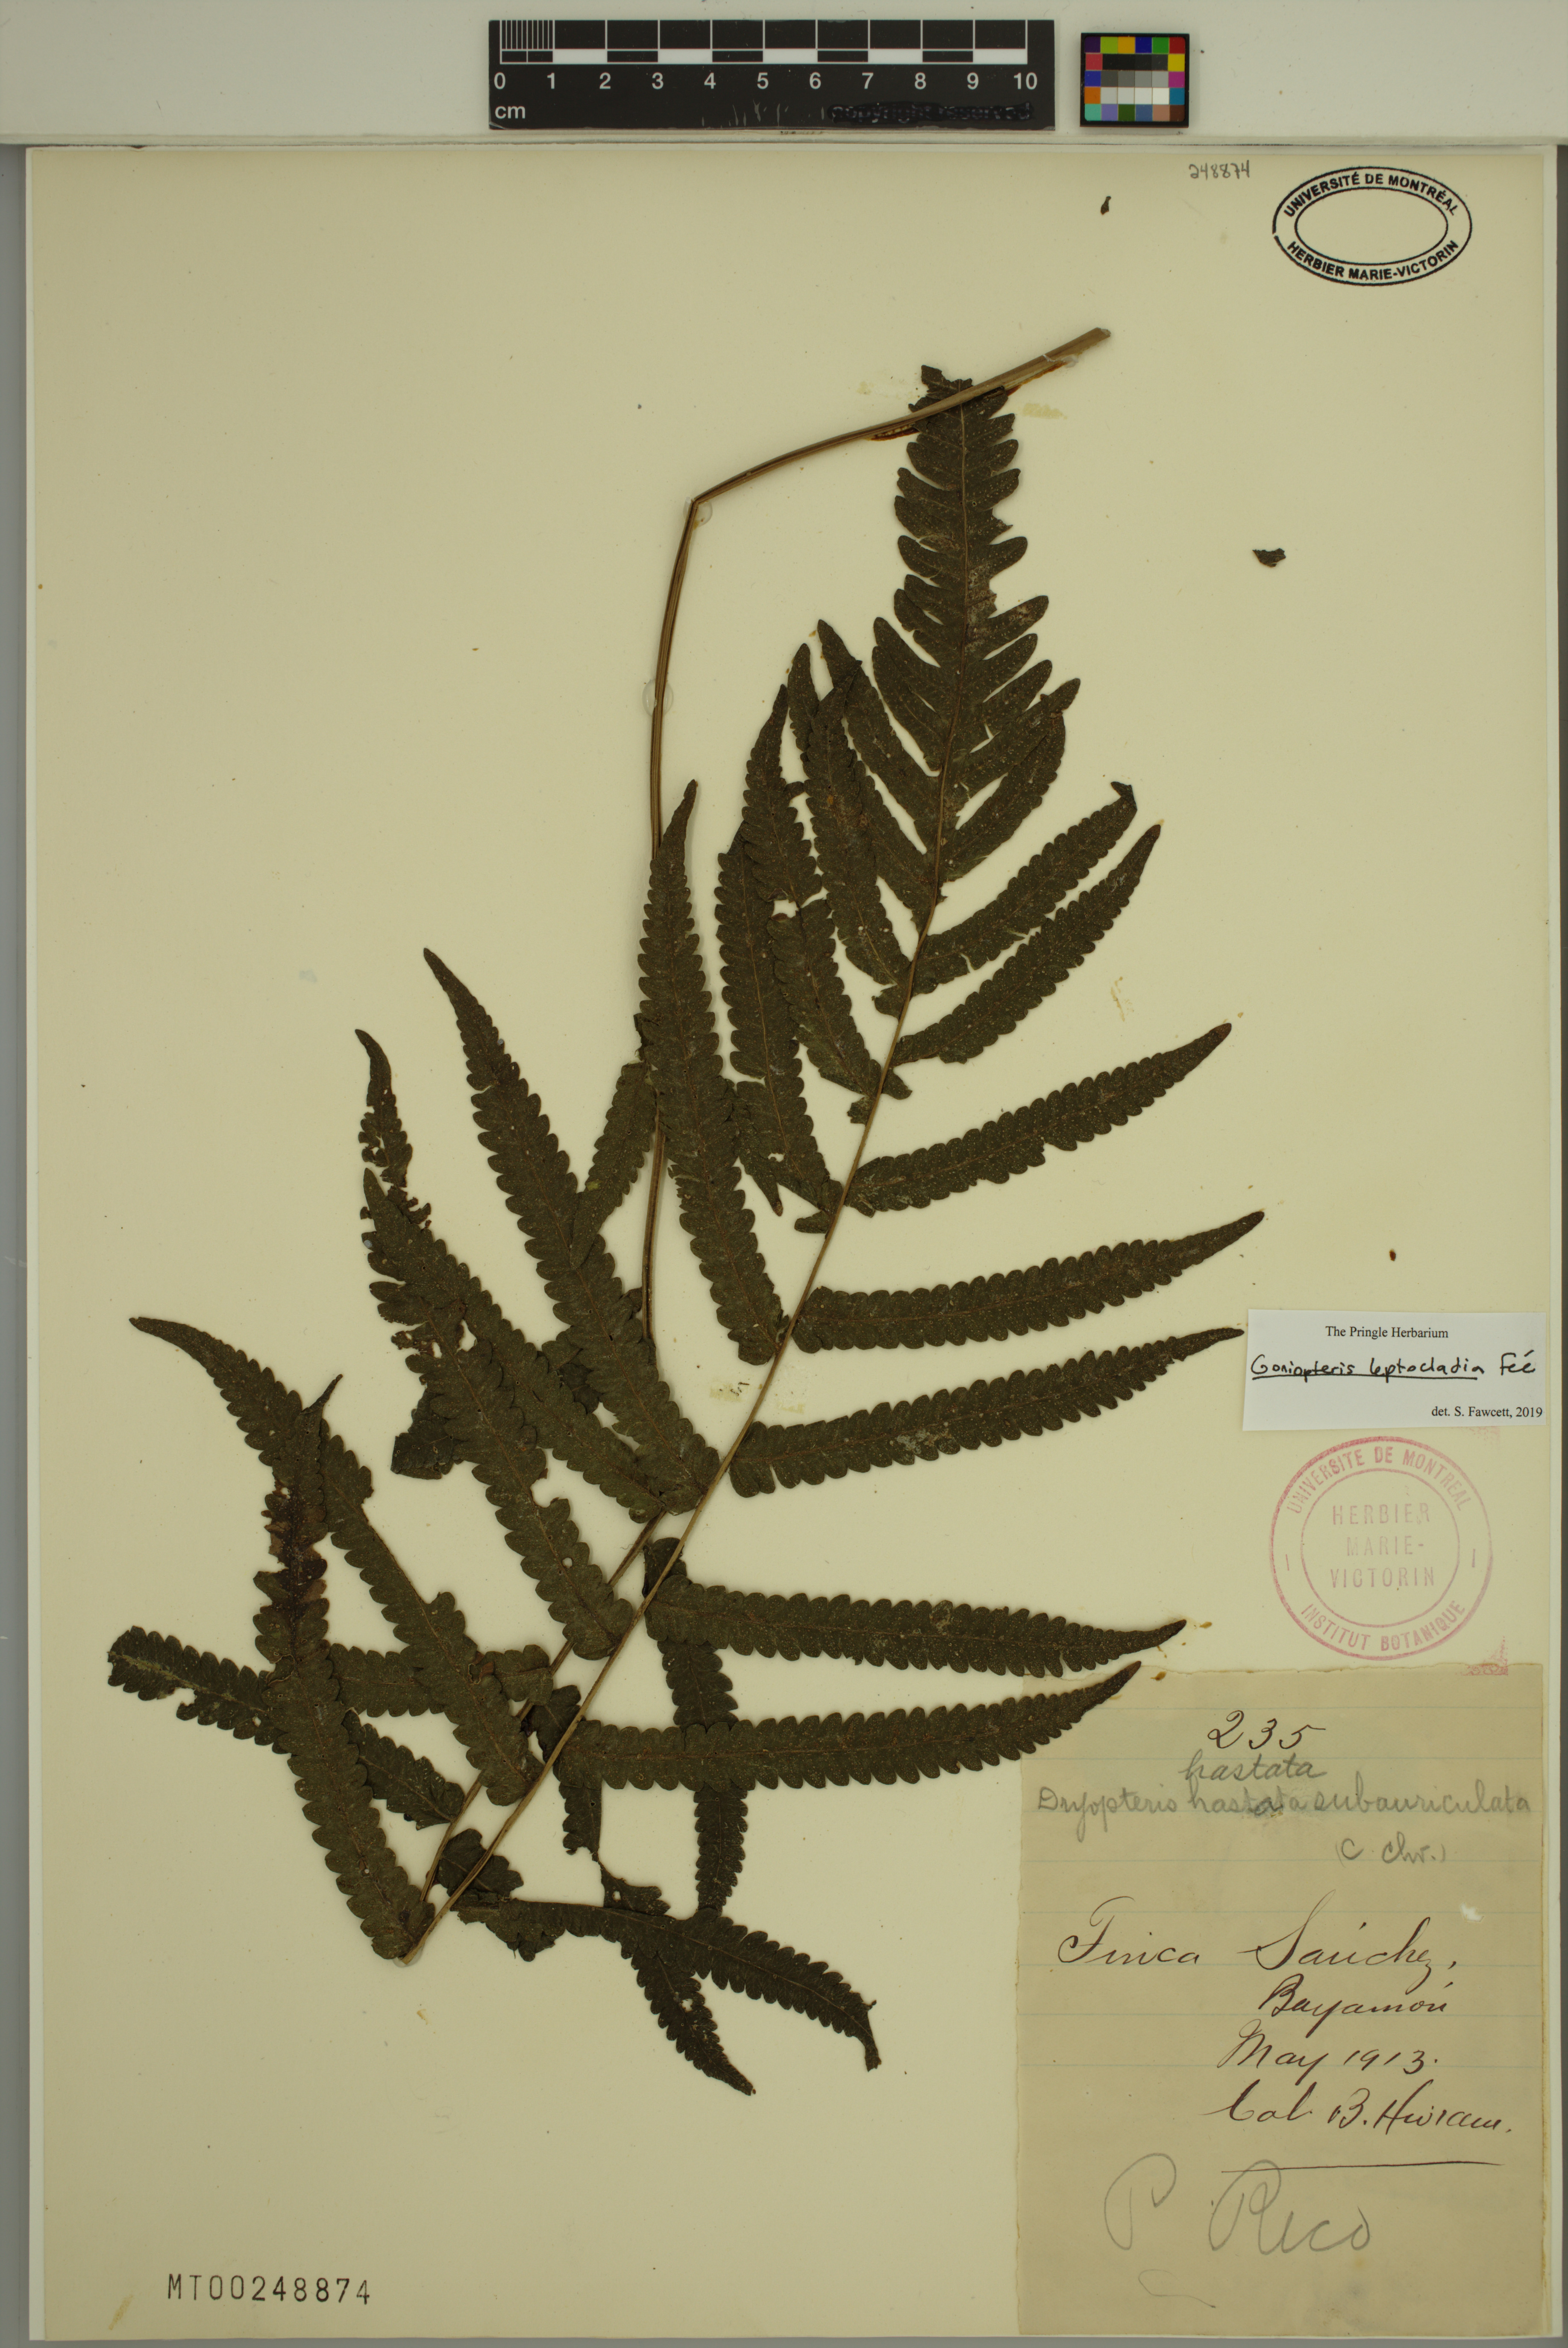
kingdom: Plantae
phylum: Tracheophyta
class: Polypodiopsida
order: Polypodiales
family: Thelypteridaceae
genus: Goniopteris
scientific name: Goniopteris leptocladia
